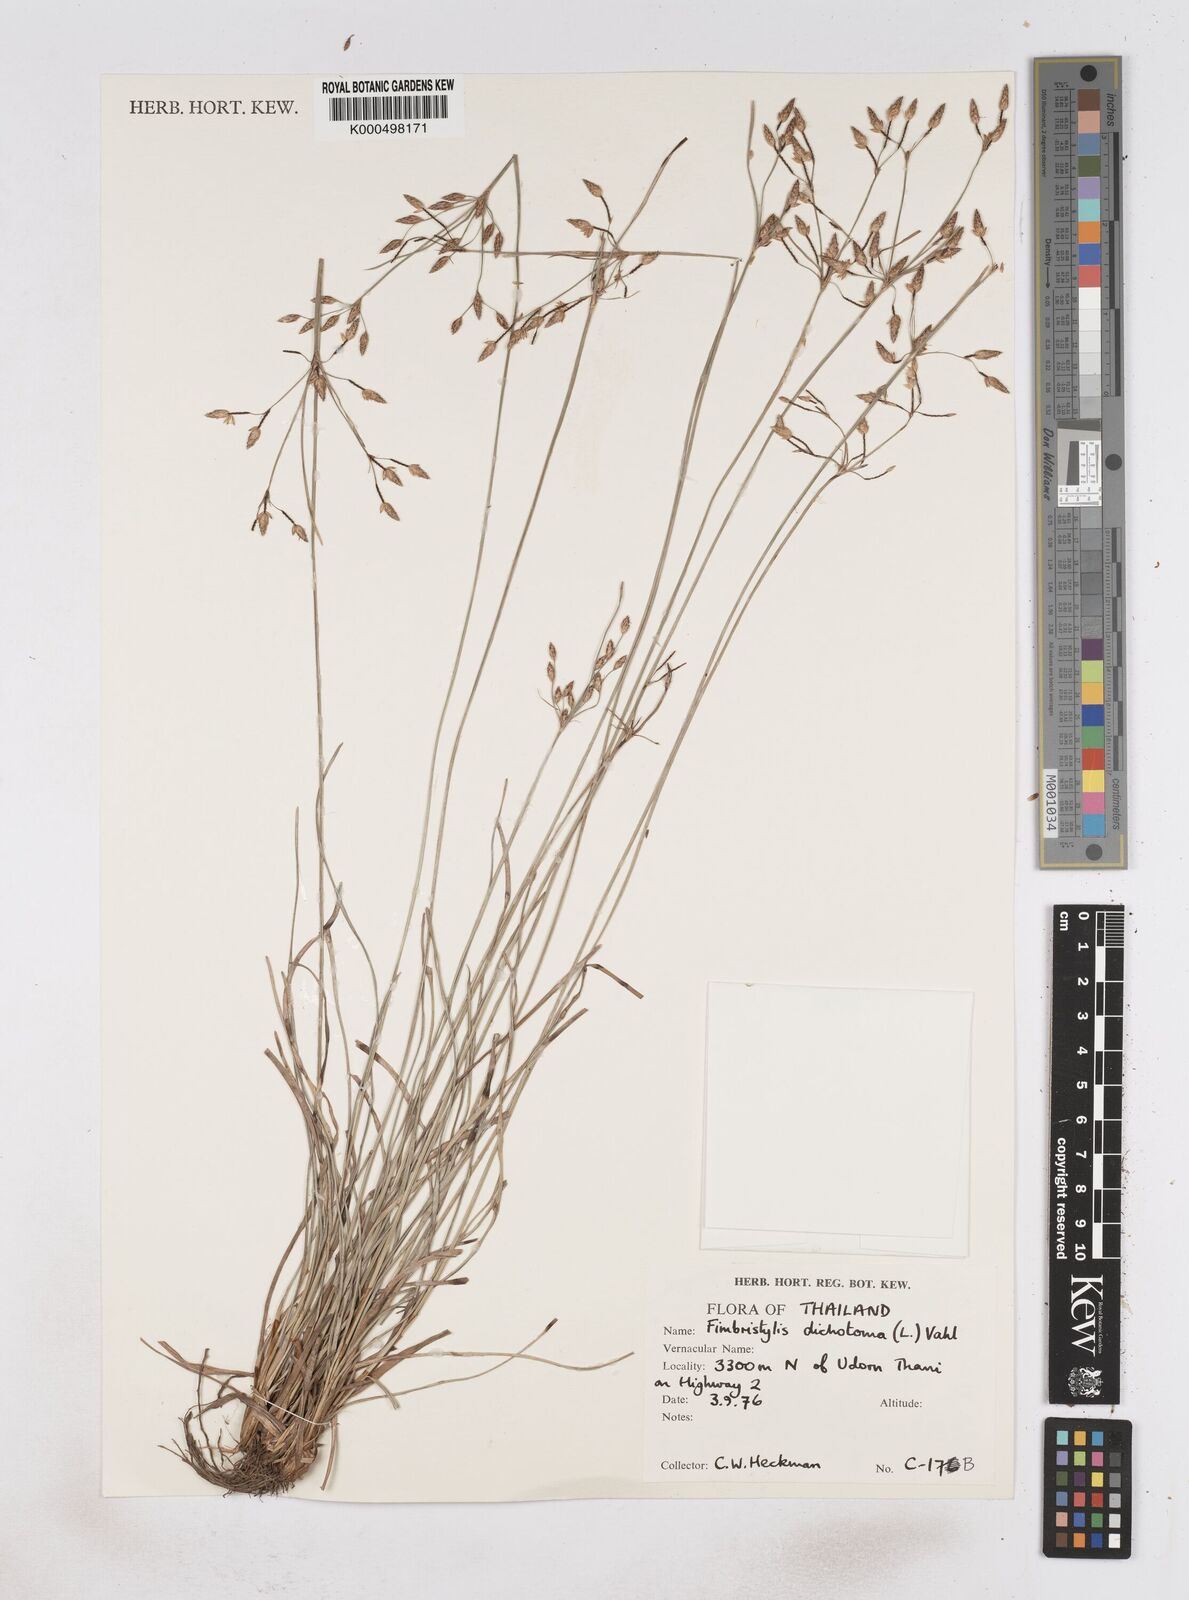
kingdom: Plantae
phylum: Tracheophyta
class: Liliopsida
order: Poales
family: Cyperaceae
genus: Fimbristylis
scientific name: Fimbristylis dichotoma
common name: Forked fimbry
